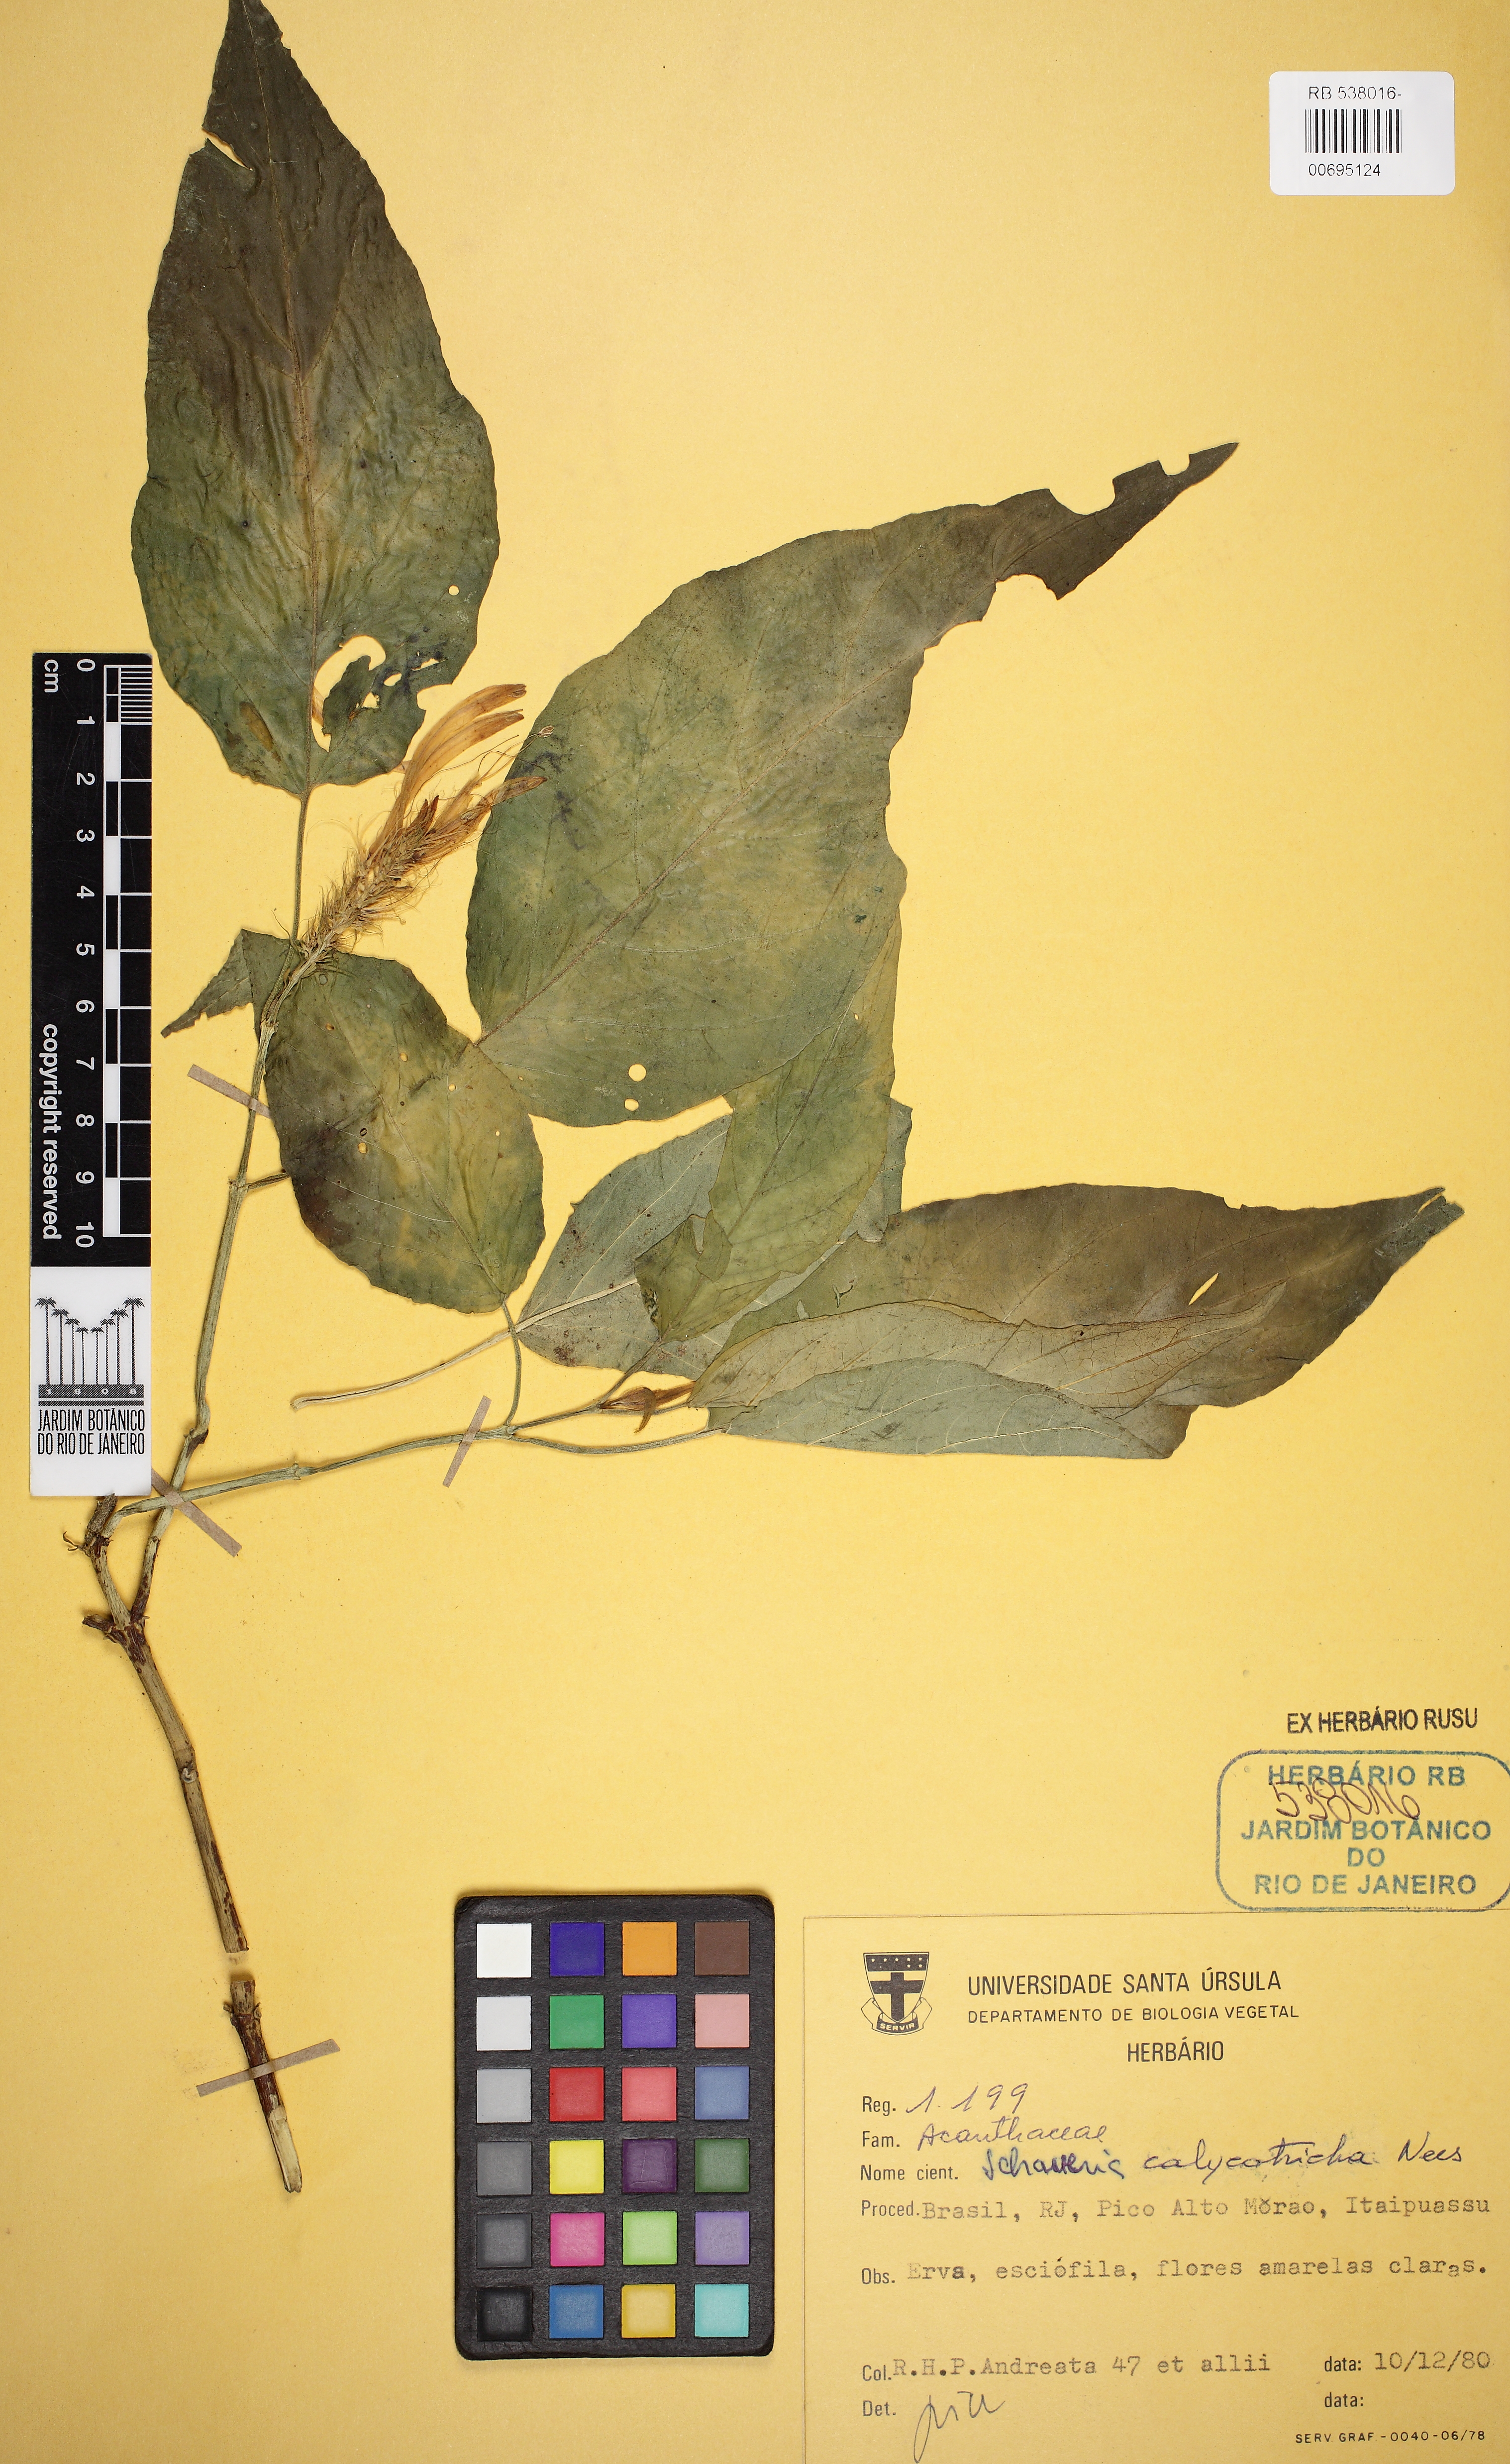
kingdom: Plantae
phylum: Tracheophyta
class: Magnoliopsida
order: Lamiales
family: Acanthaceae
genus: Schaueria
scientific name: Schaueria calytricha
